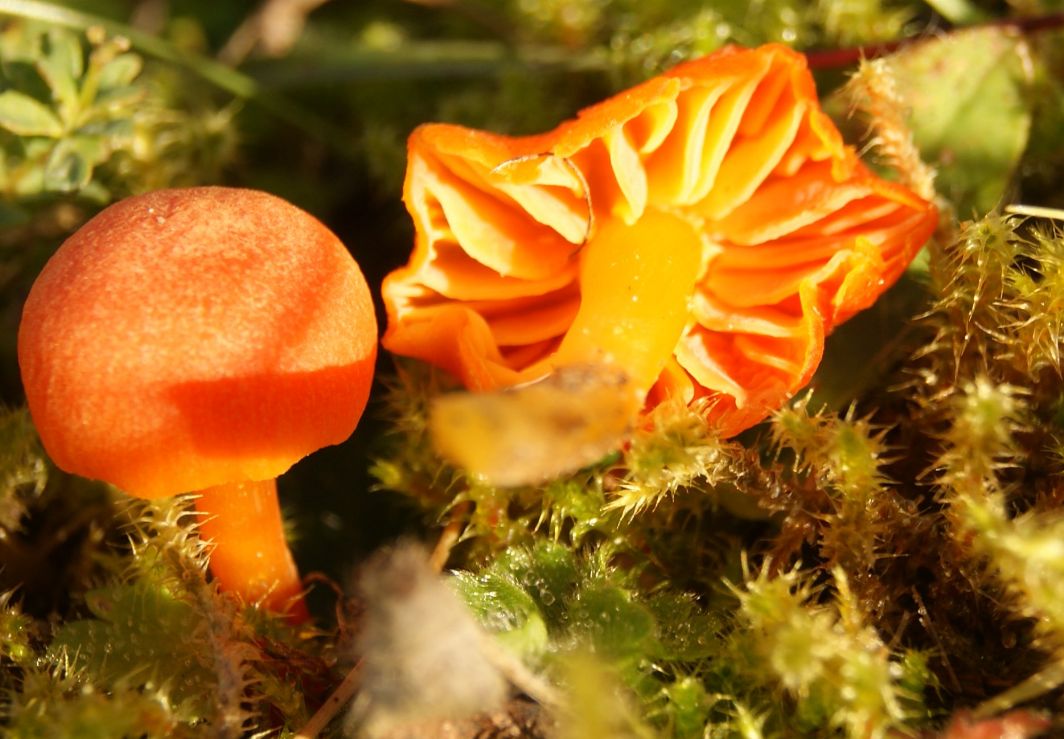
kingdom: Fungi
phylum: Basidiomycota
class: Agaricomycetes
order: Agaricales
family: Hygrophoraceae
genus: Hygrocybe
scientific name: Hygrocybe miniata
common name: mønje-vokshat
